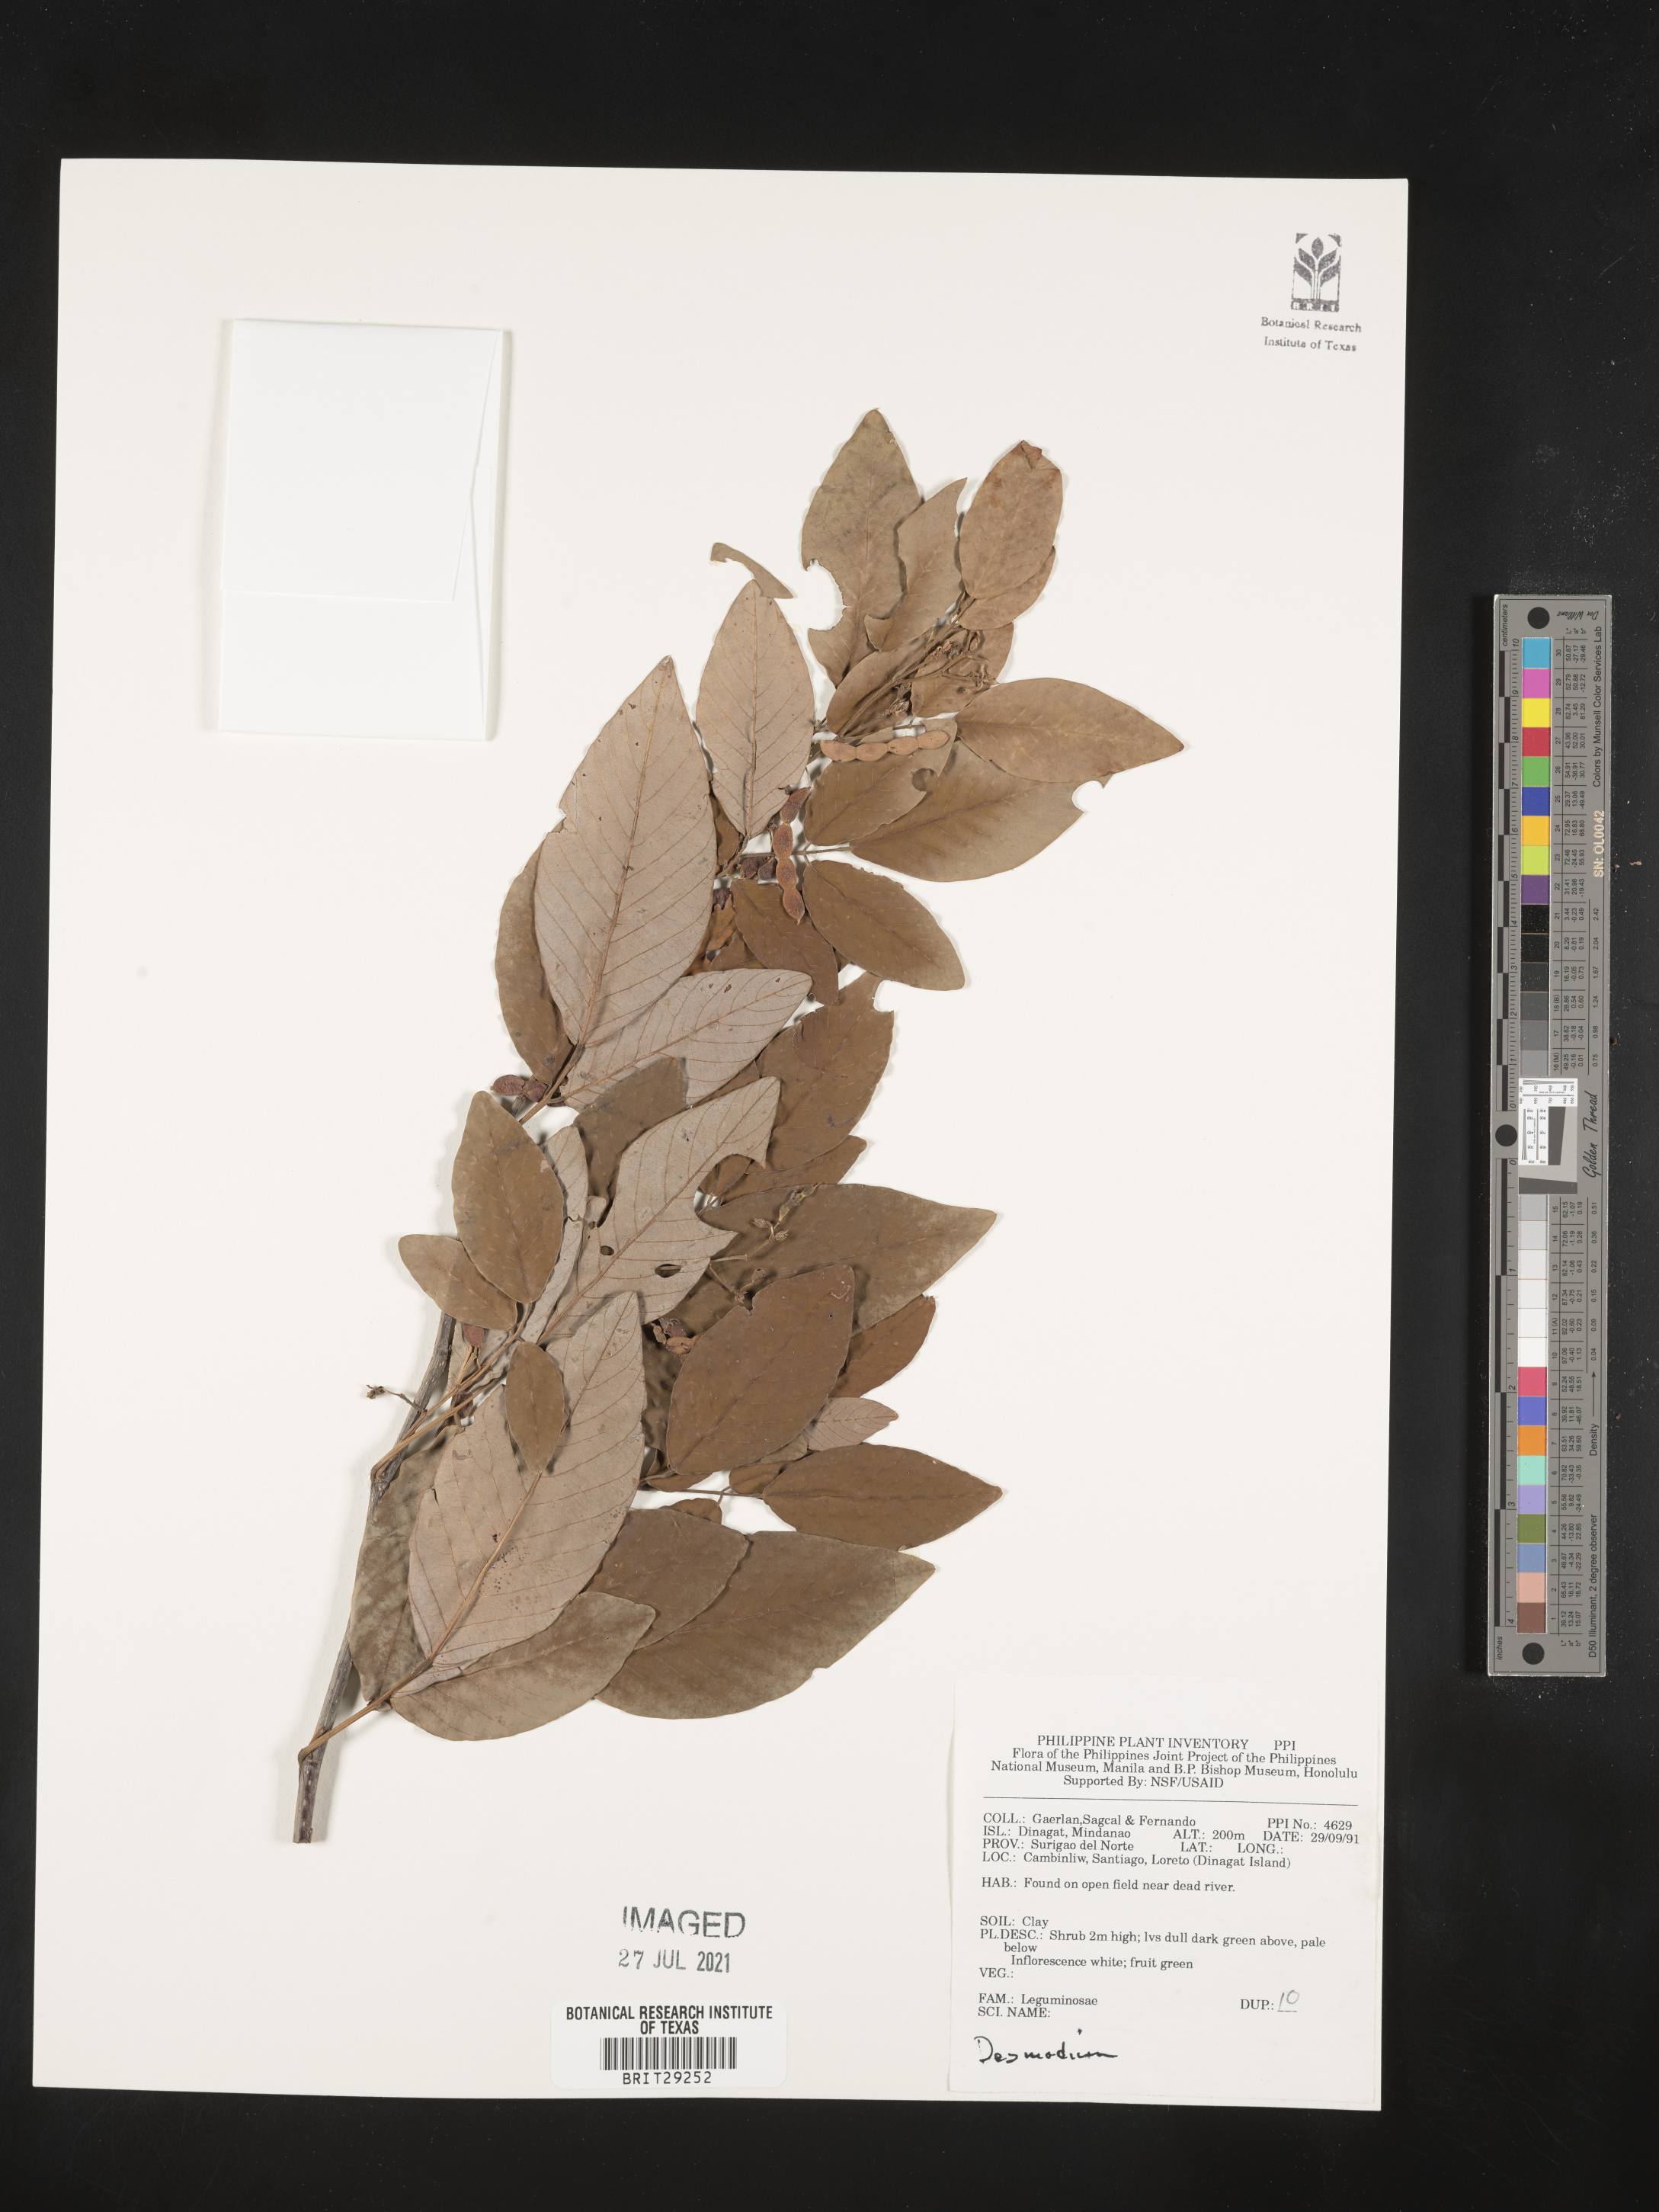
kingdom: Plantae
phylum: Tracheophyta
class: Magnoliopsida
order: Fabales
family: Fabaceae
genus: Desmodium
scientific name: Desmodium
